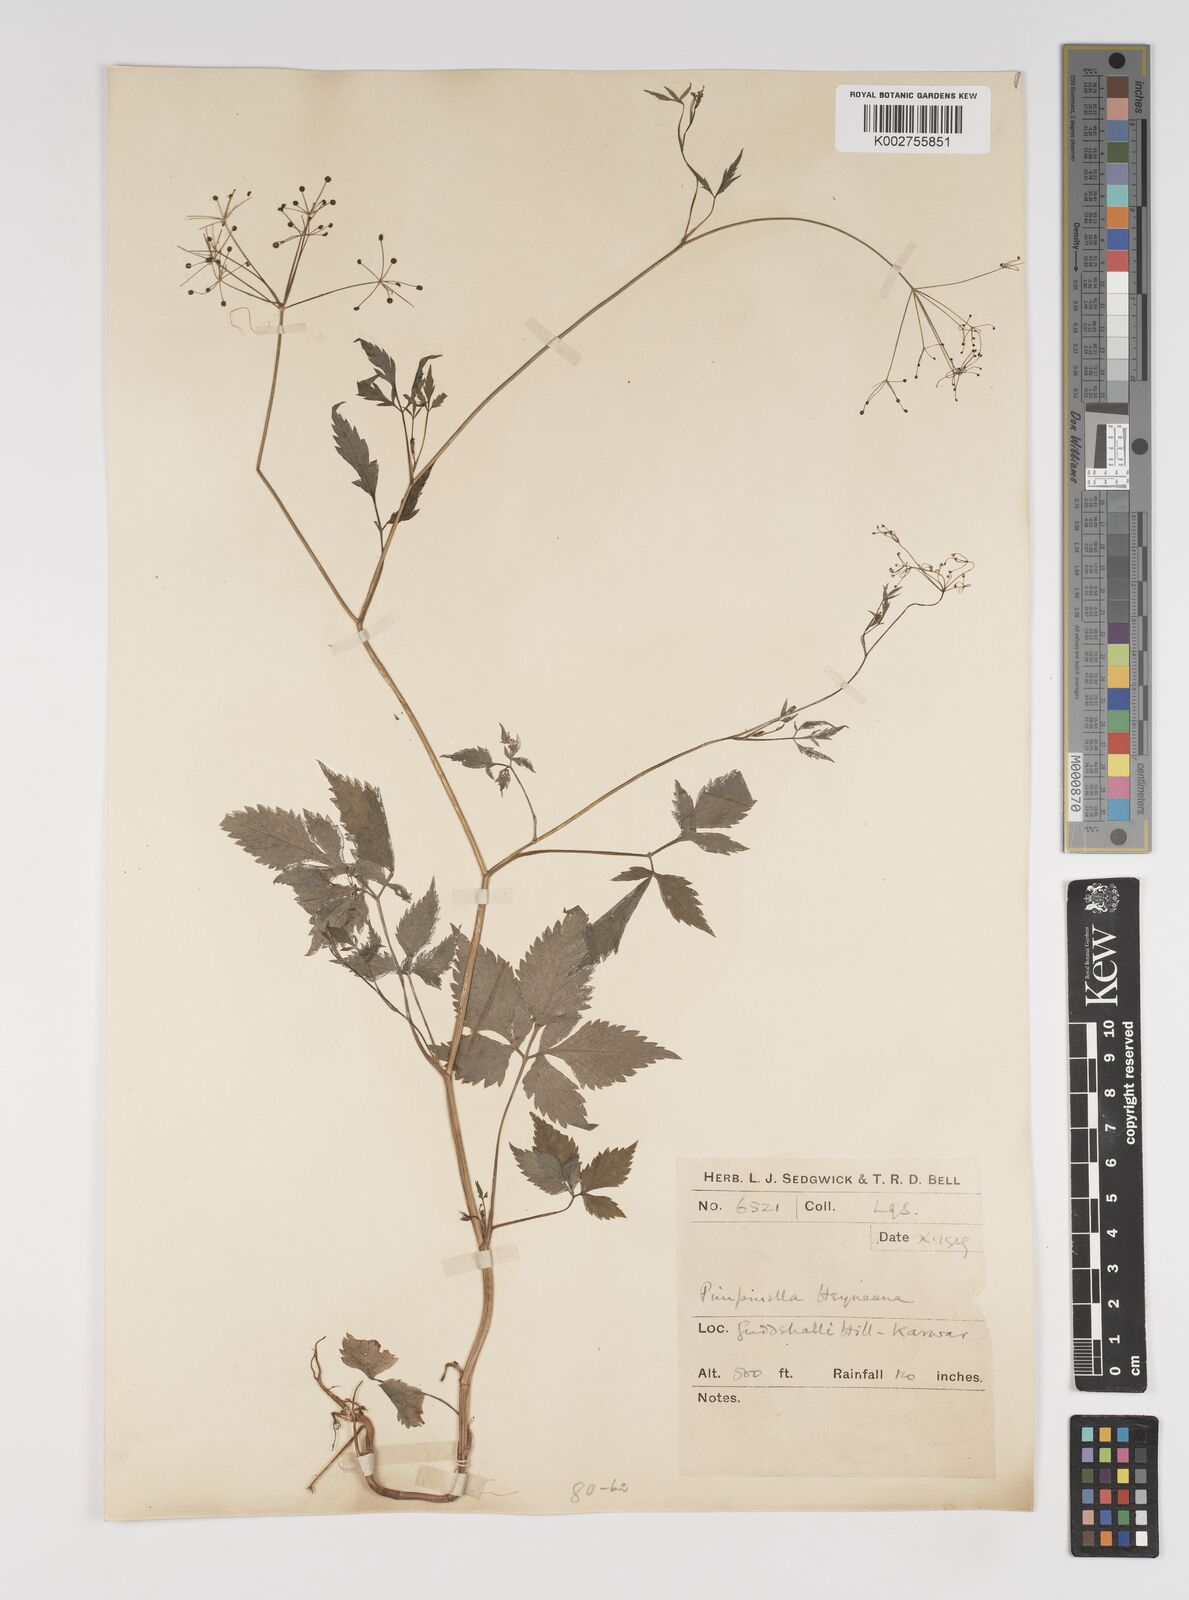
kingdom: Plantae
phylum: Tracheophyta
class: Magnoliopsida
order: Apiales
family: Apiaceae
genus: Pimpinella
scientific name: Pimpinella heyneana
